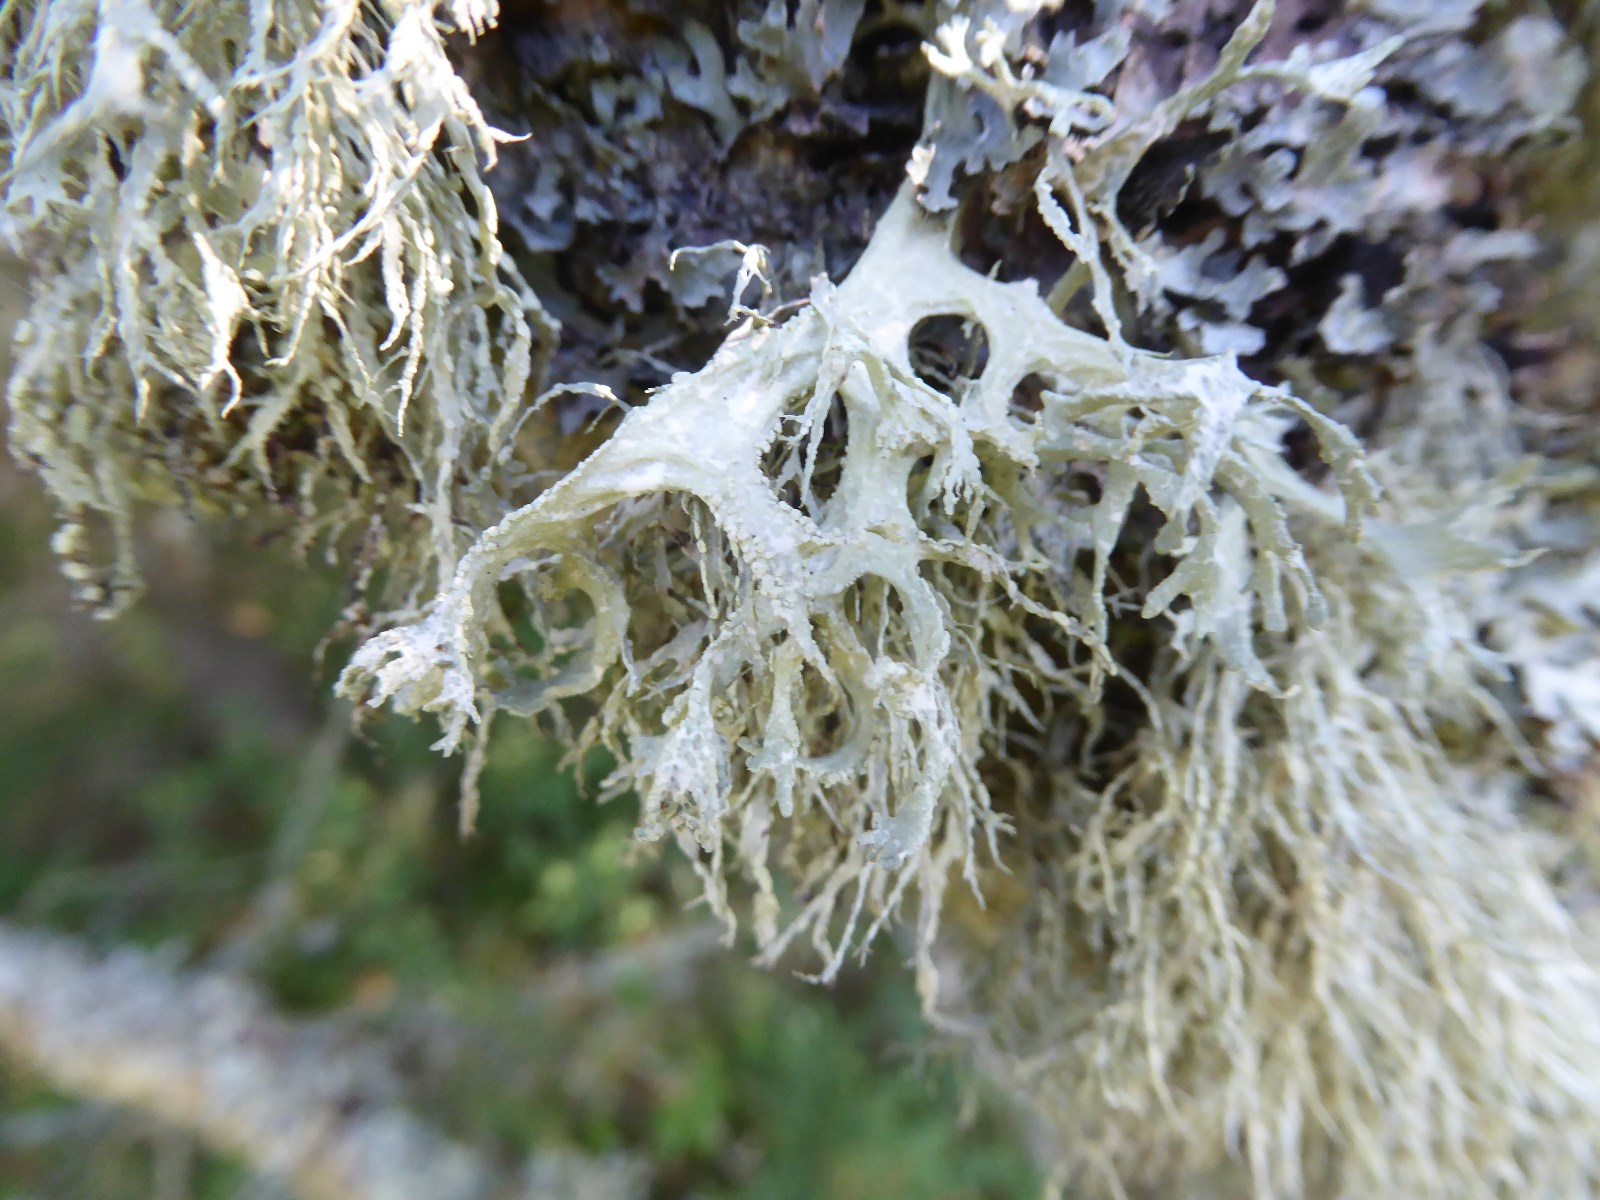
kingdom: Fungi
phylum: Ascomycota
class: Lecanoromycetes
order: Lecanorales
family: Parmeliaceae
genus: Evernia
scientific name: Evernia prunastri
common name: almindelig slåenlav
